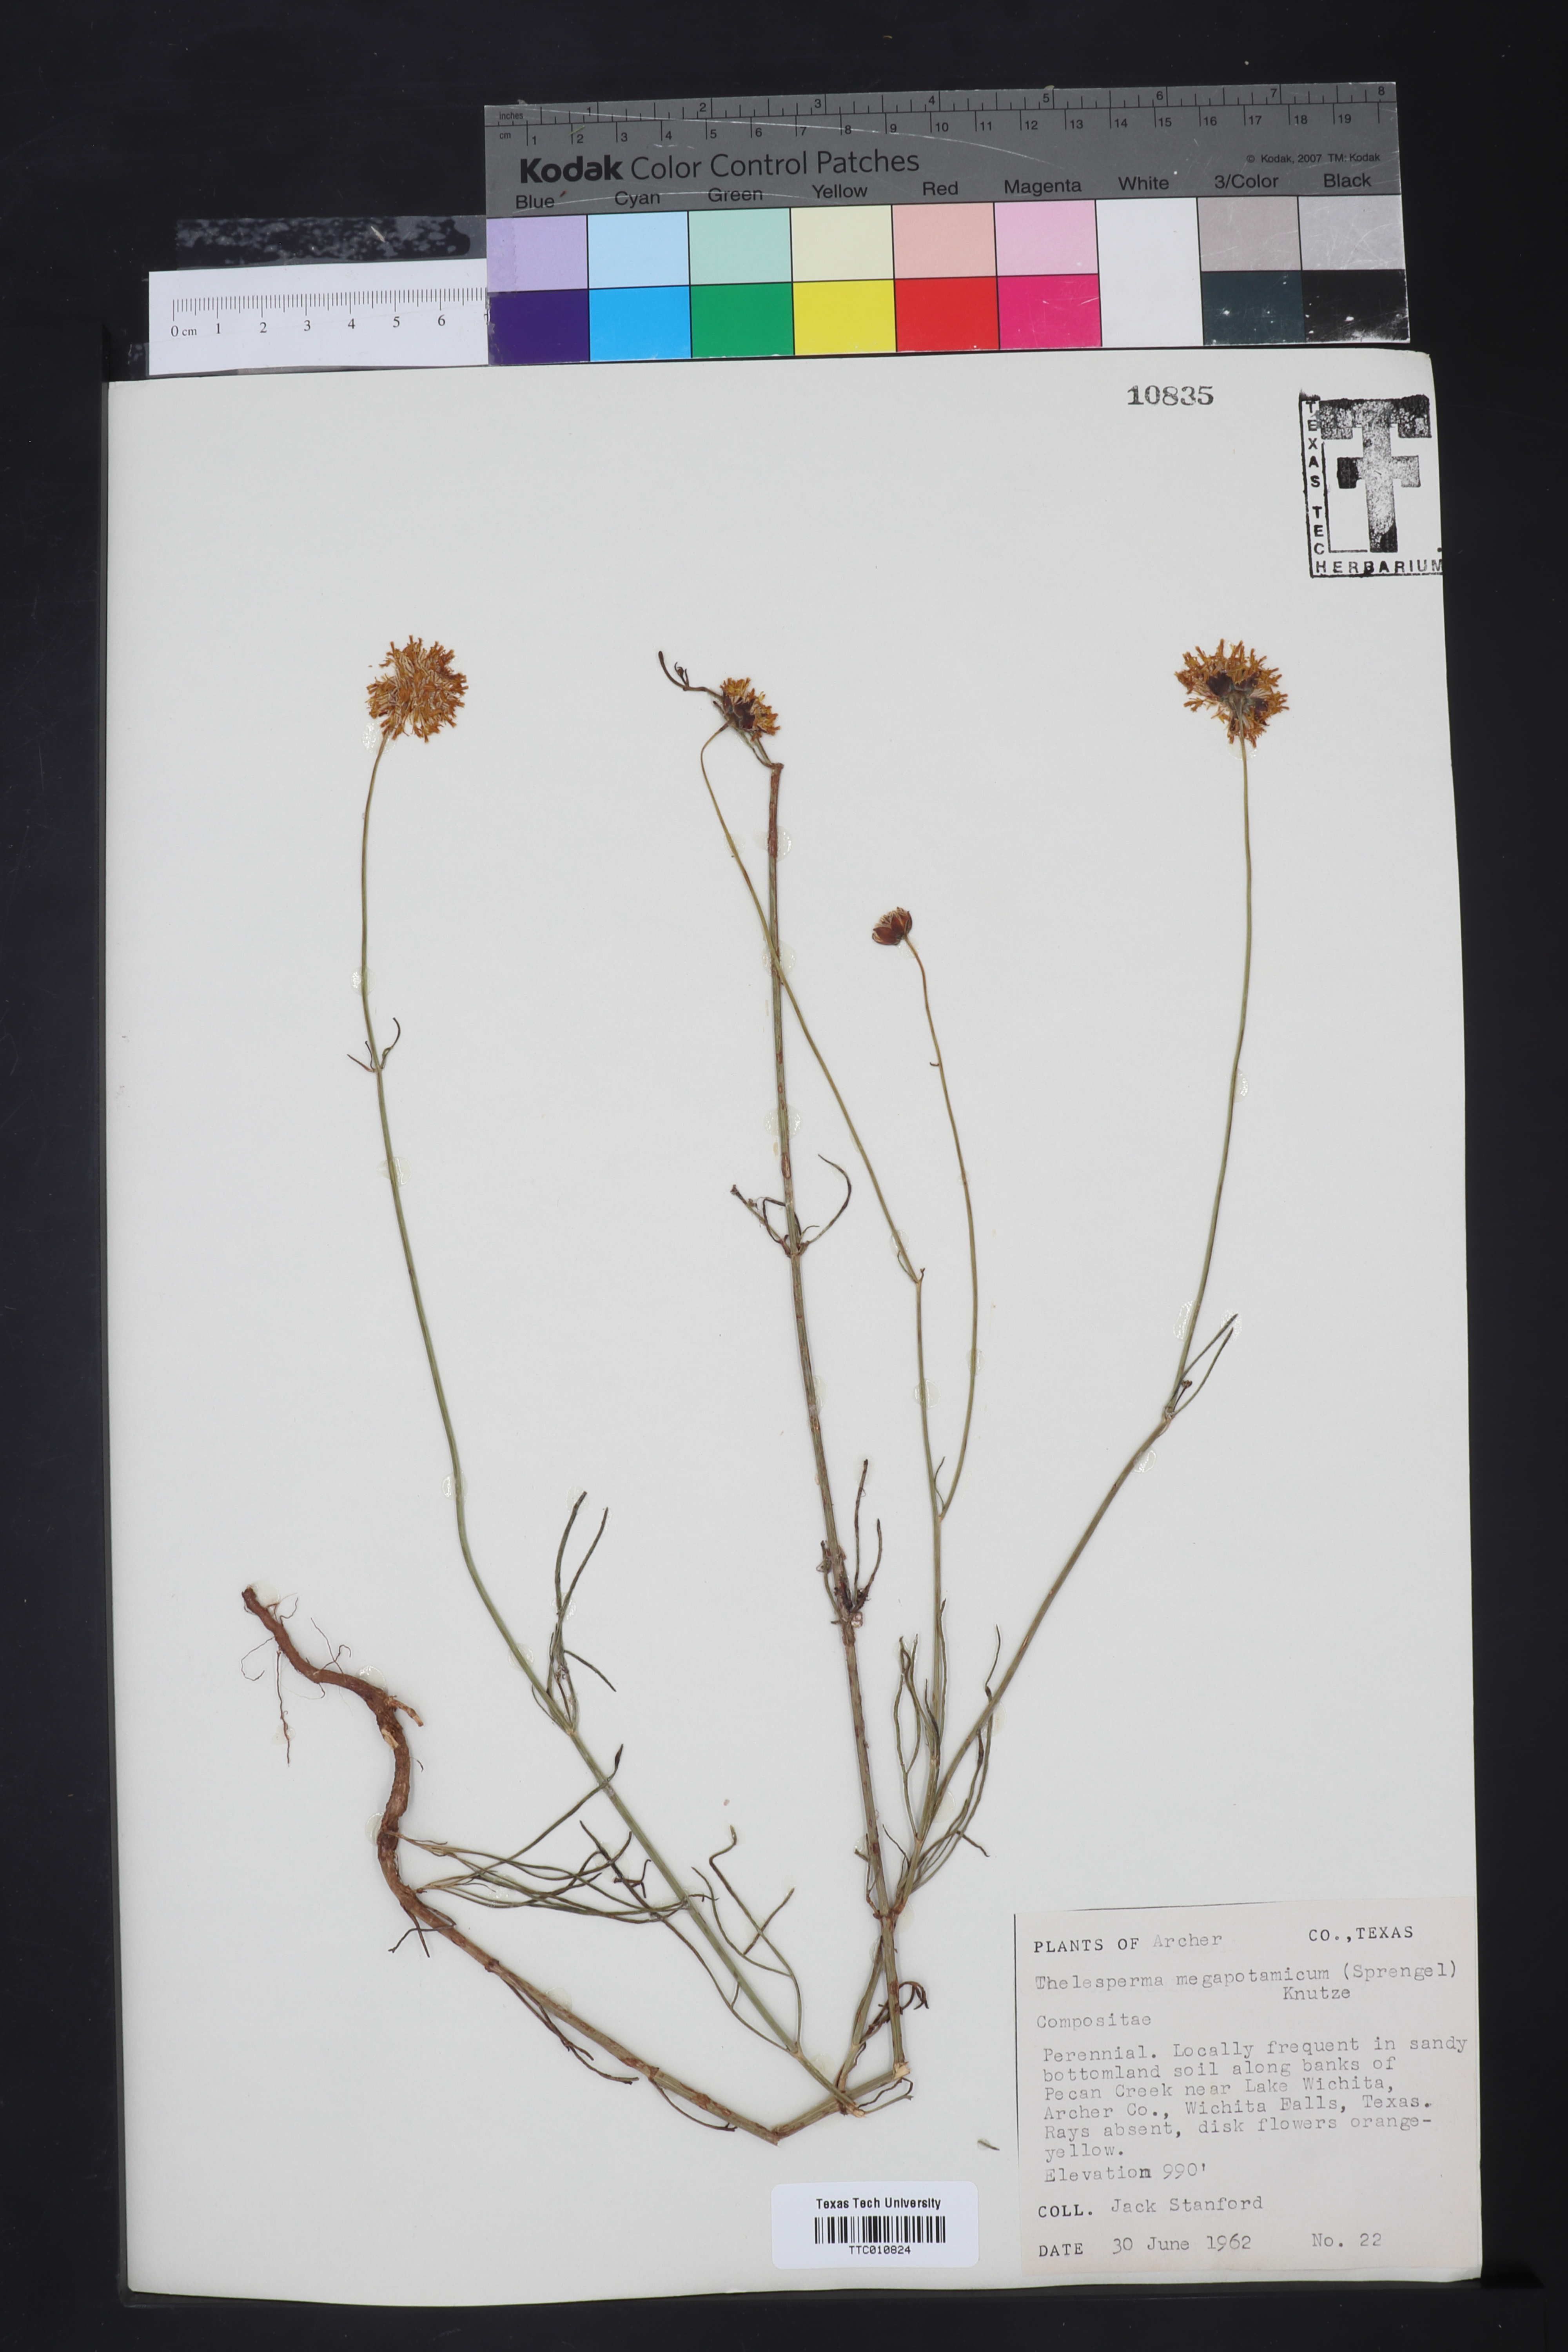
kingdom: Plantae
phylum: Tracheophyta
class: Magnoliopsida
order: Asterales
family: Asteraceae
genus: Thelesperma
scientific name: Thelesperma megapotamicum
